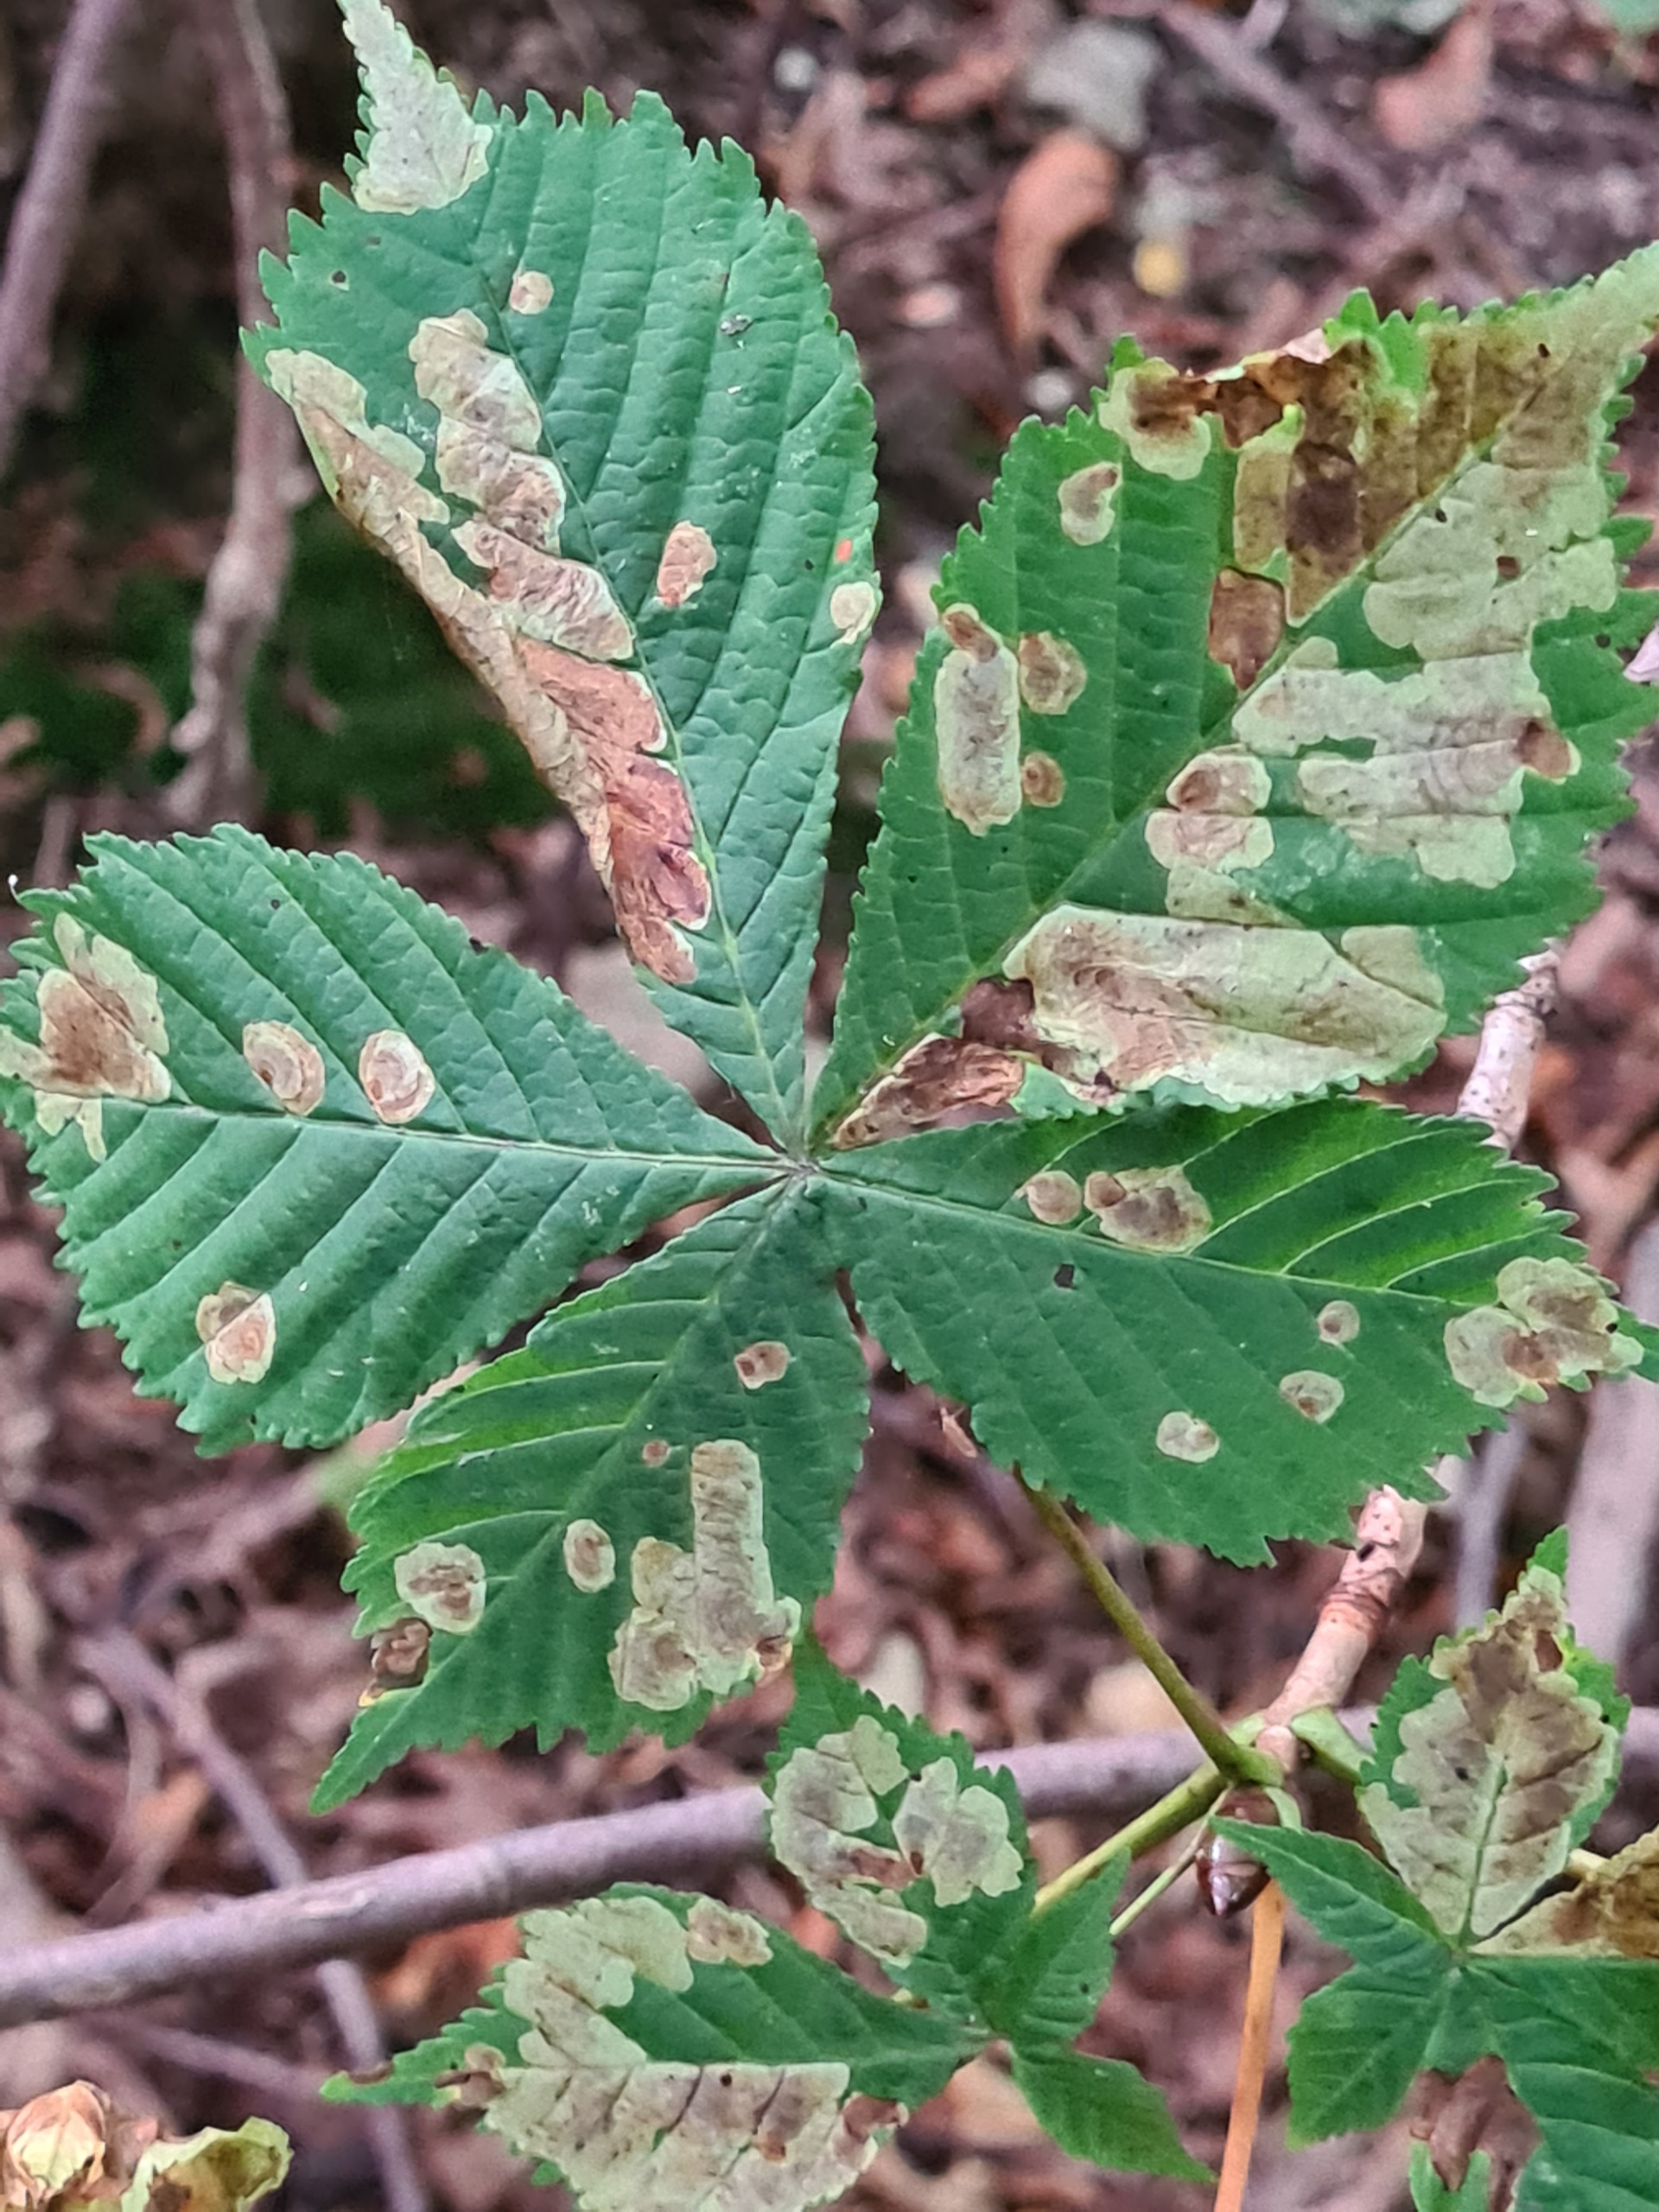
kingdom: Animalia
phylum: Arthropoda
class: Insecta
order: Lepidoptera
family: Gracillariidae
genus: Cameraria
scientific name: Cameraria ohridella
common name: Kastanieminérmøl
